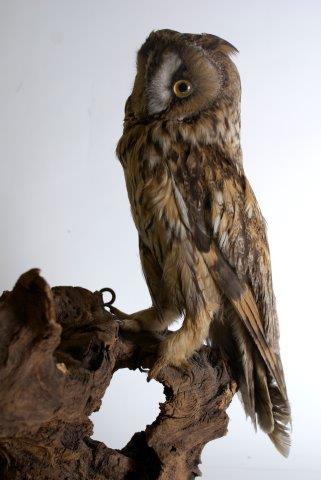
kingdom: Animalia
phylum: Chordata
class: Aves
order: Strigiformes
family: Strigidae
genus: Asio
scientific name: Asio otus
